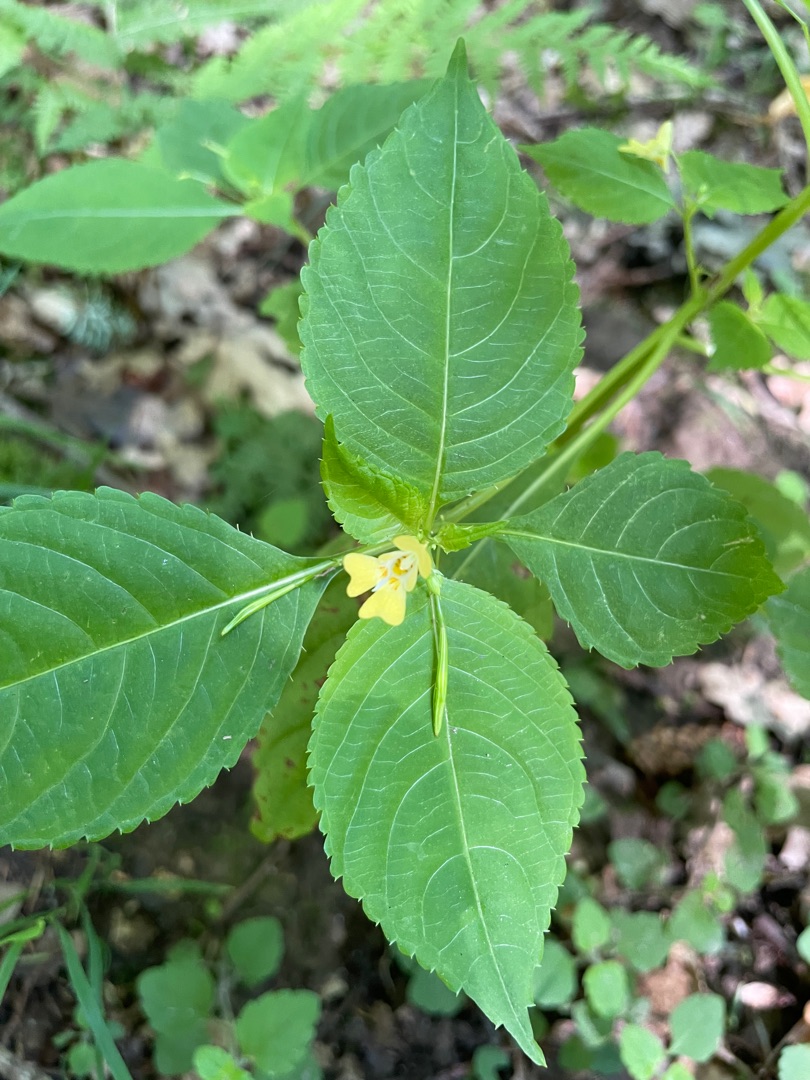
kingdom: Plantae
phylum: Tracheophyta
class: Magnoliopsida
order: Ericales
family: Balsaminaceae
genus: Impatiens
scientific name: Impatiens parviflora
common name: Småblomstret balsamin
